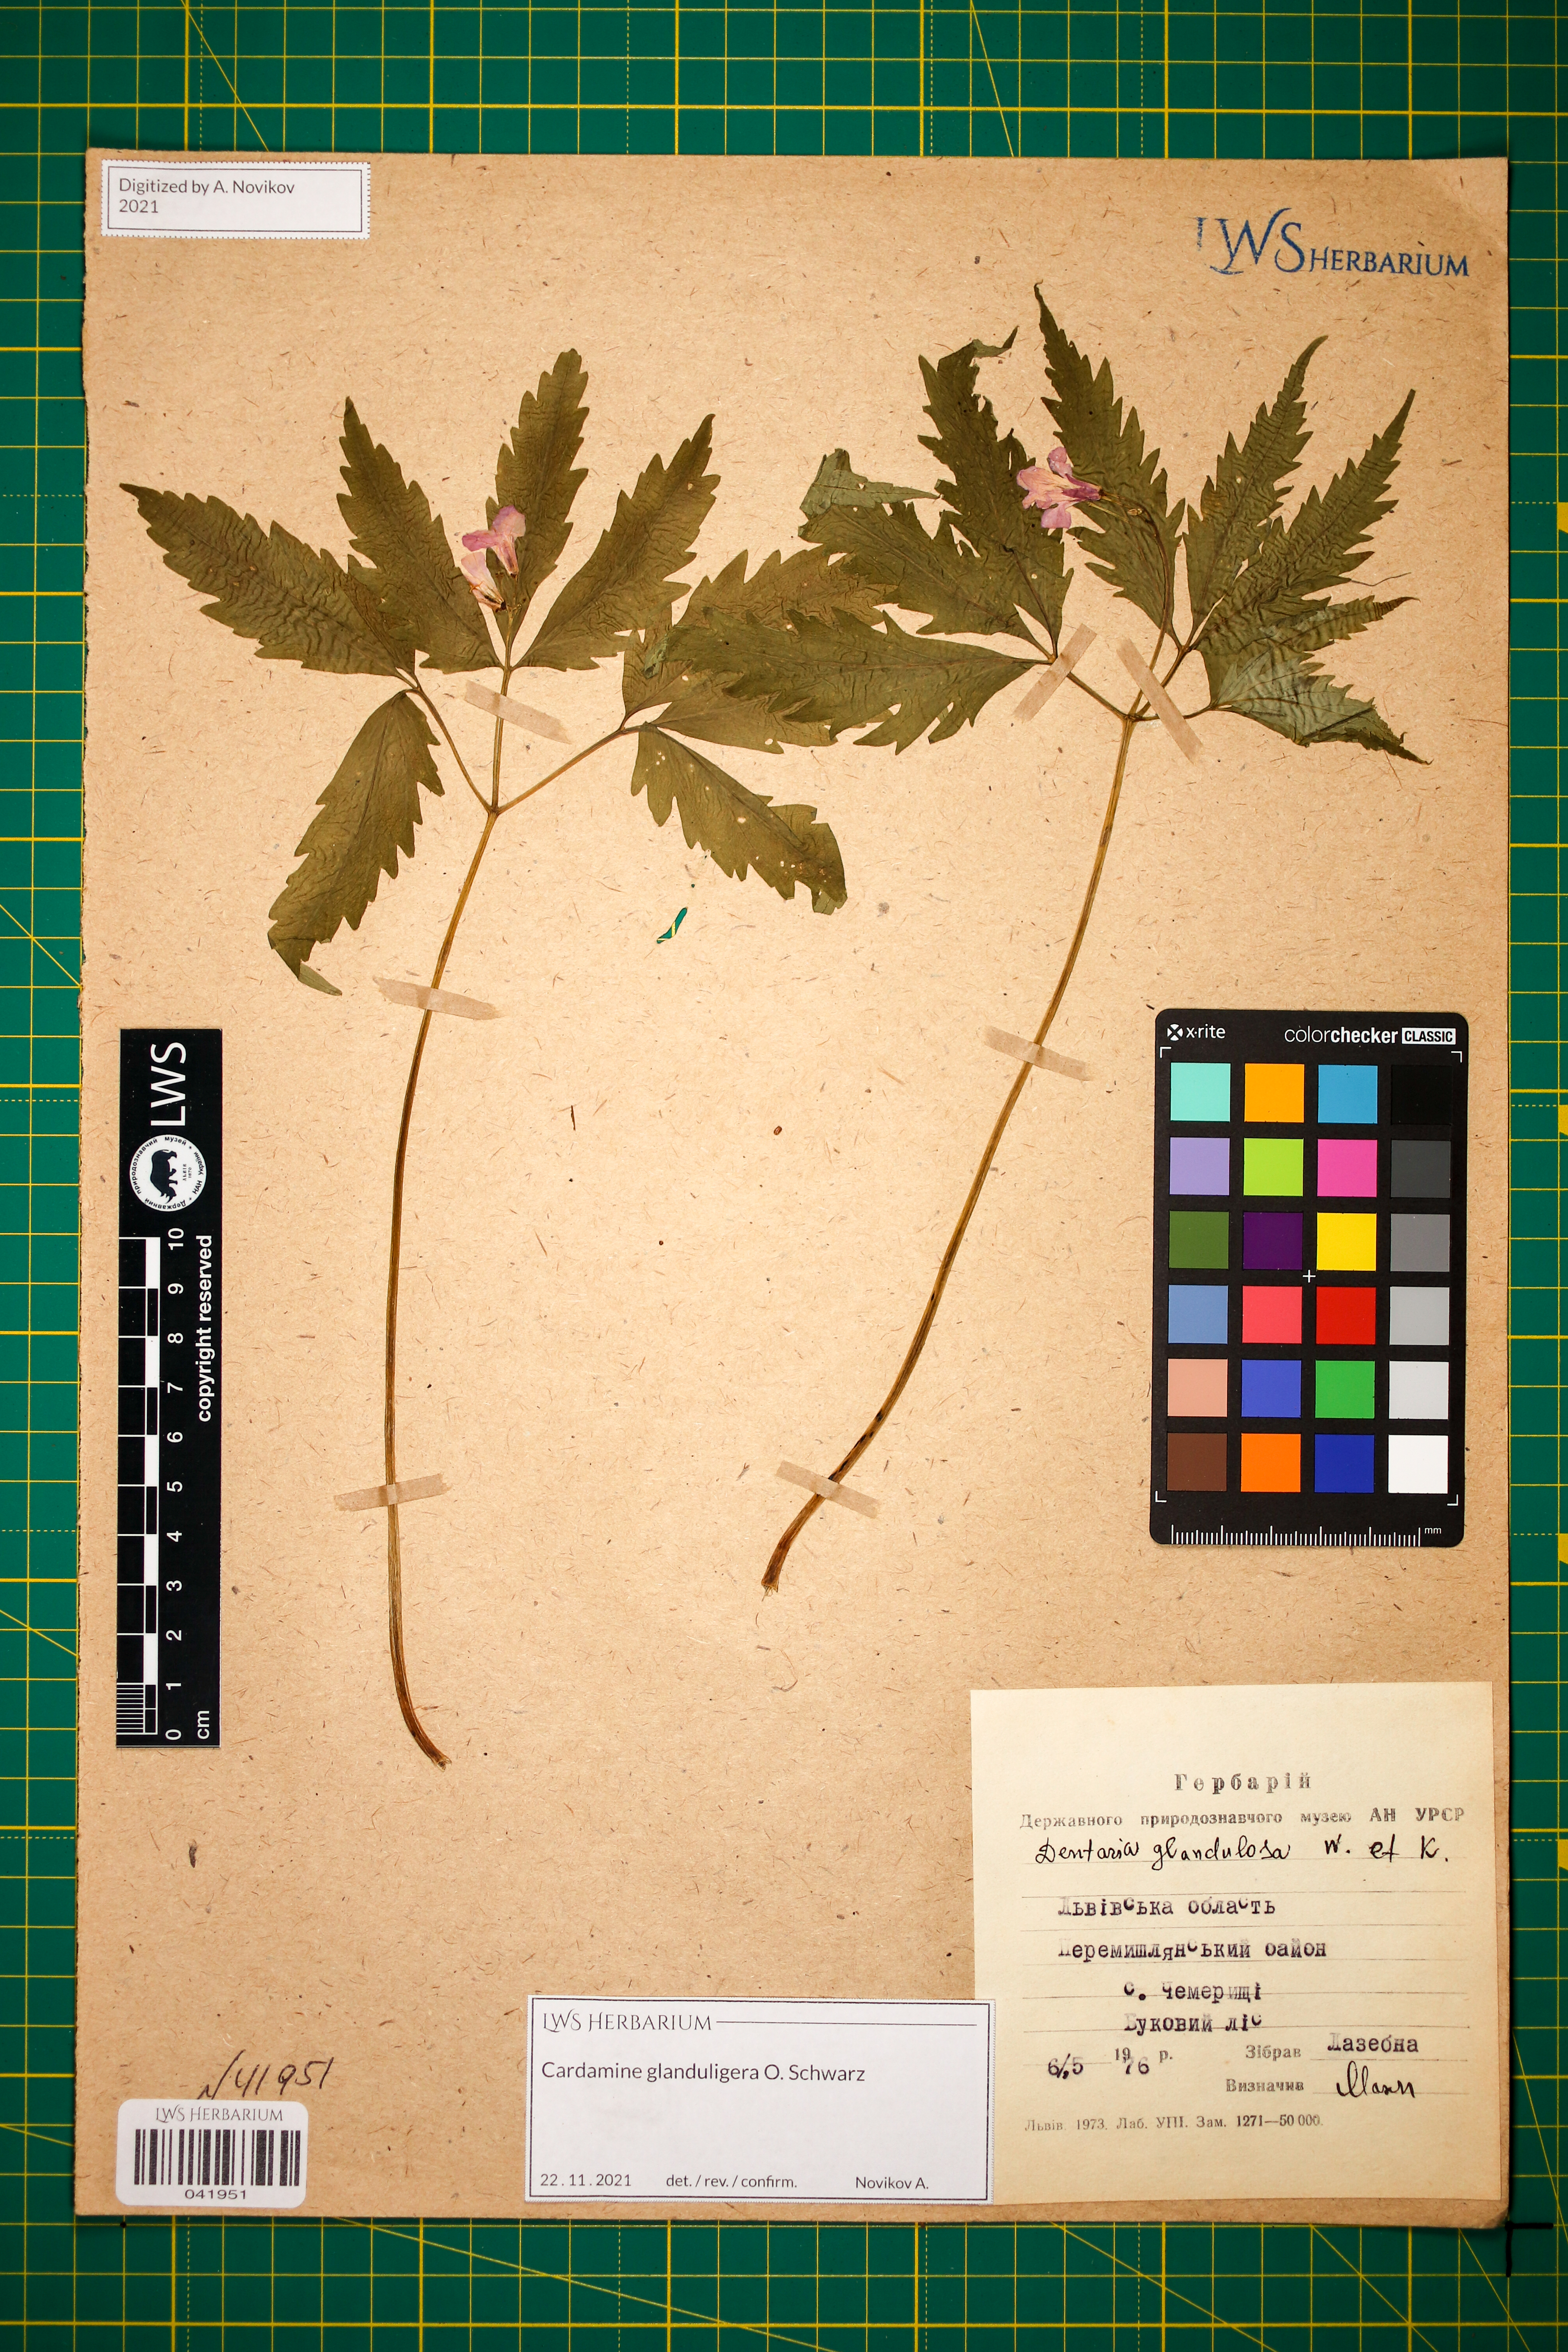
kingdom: Plantae
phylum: Tracheophyta
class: Magnoliopsida
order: Brassicales
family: Brassicaceae
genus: Cardamine
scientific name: Cardamine glanduligera
